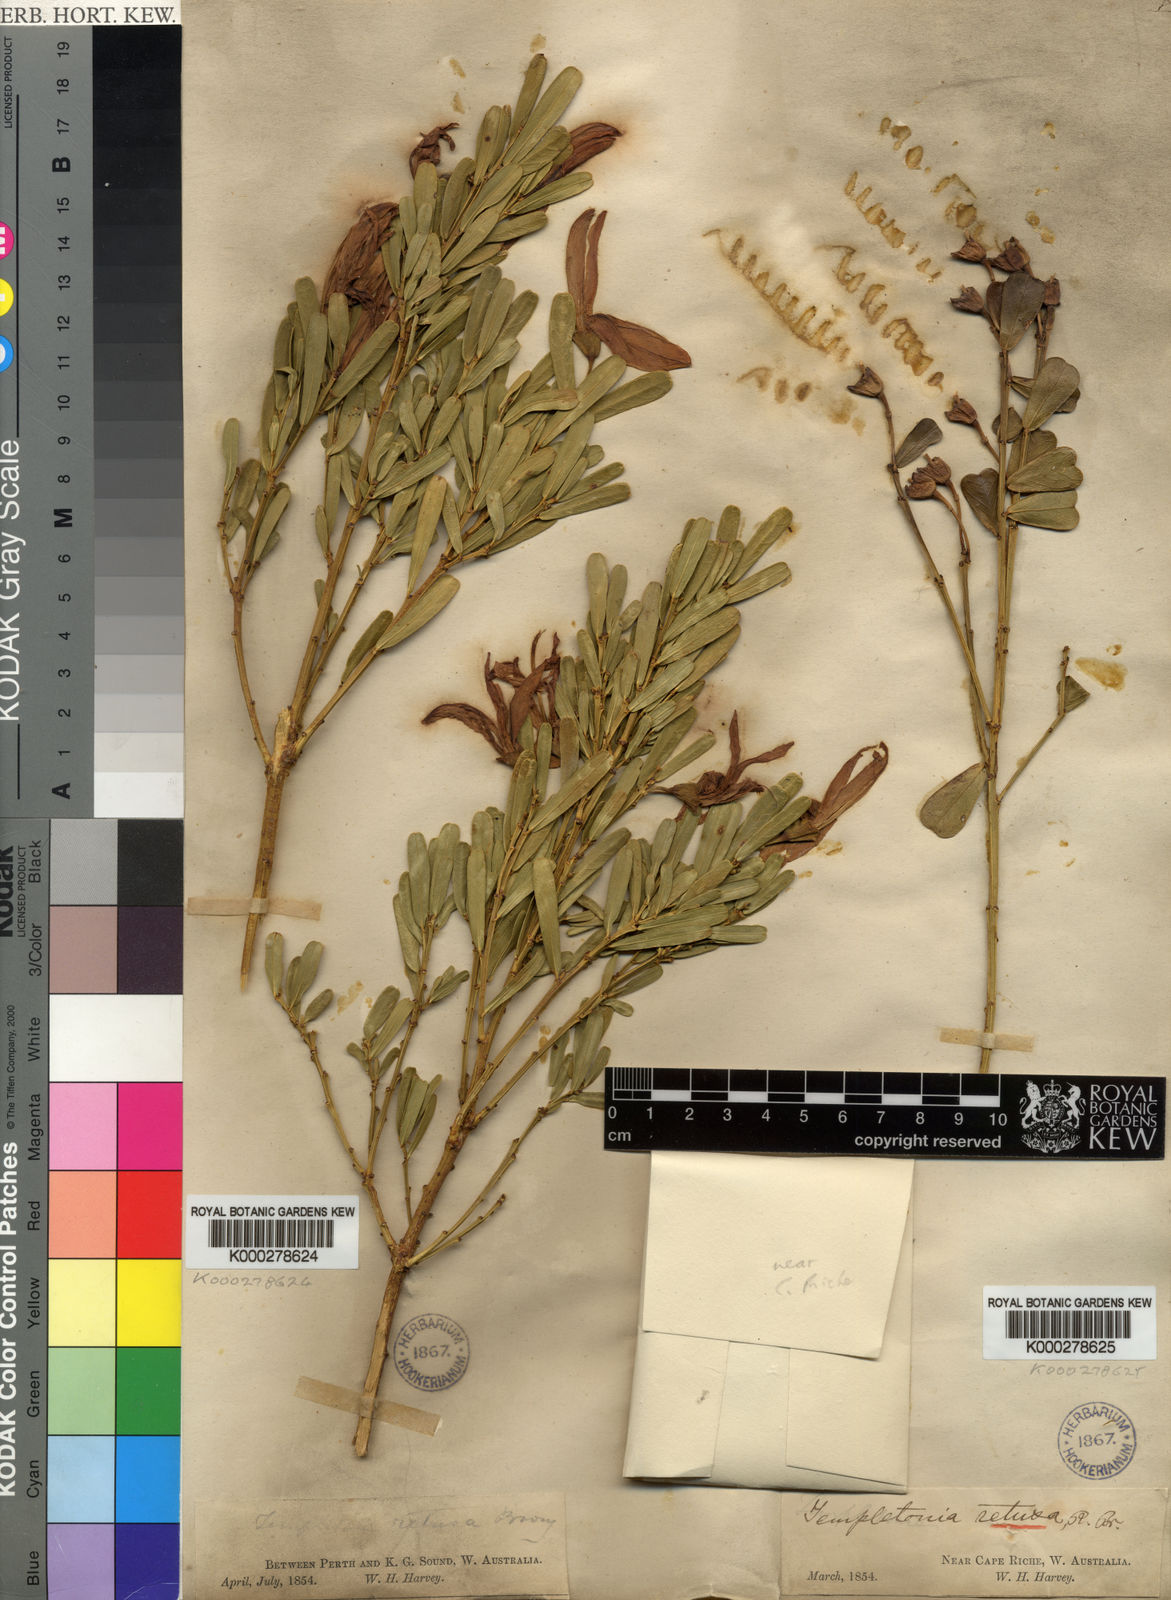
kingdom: Plantae
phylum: Tracheophyta
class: Magnoliopsida
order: Fabales
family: Fabaceae
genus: Templetonia
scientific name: Templetonia retusa
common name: Cockies'-tongue
